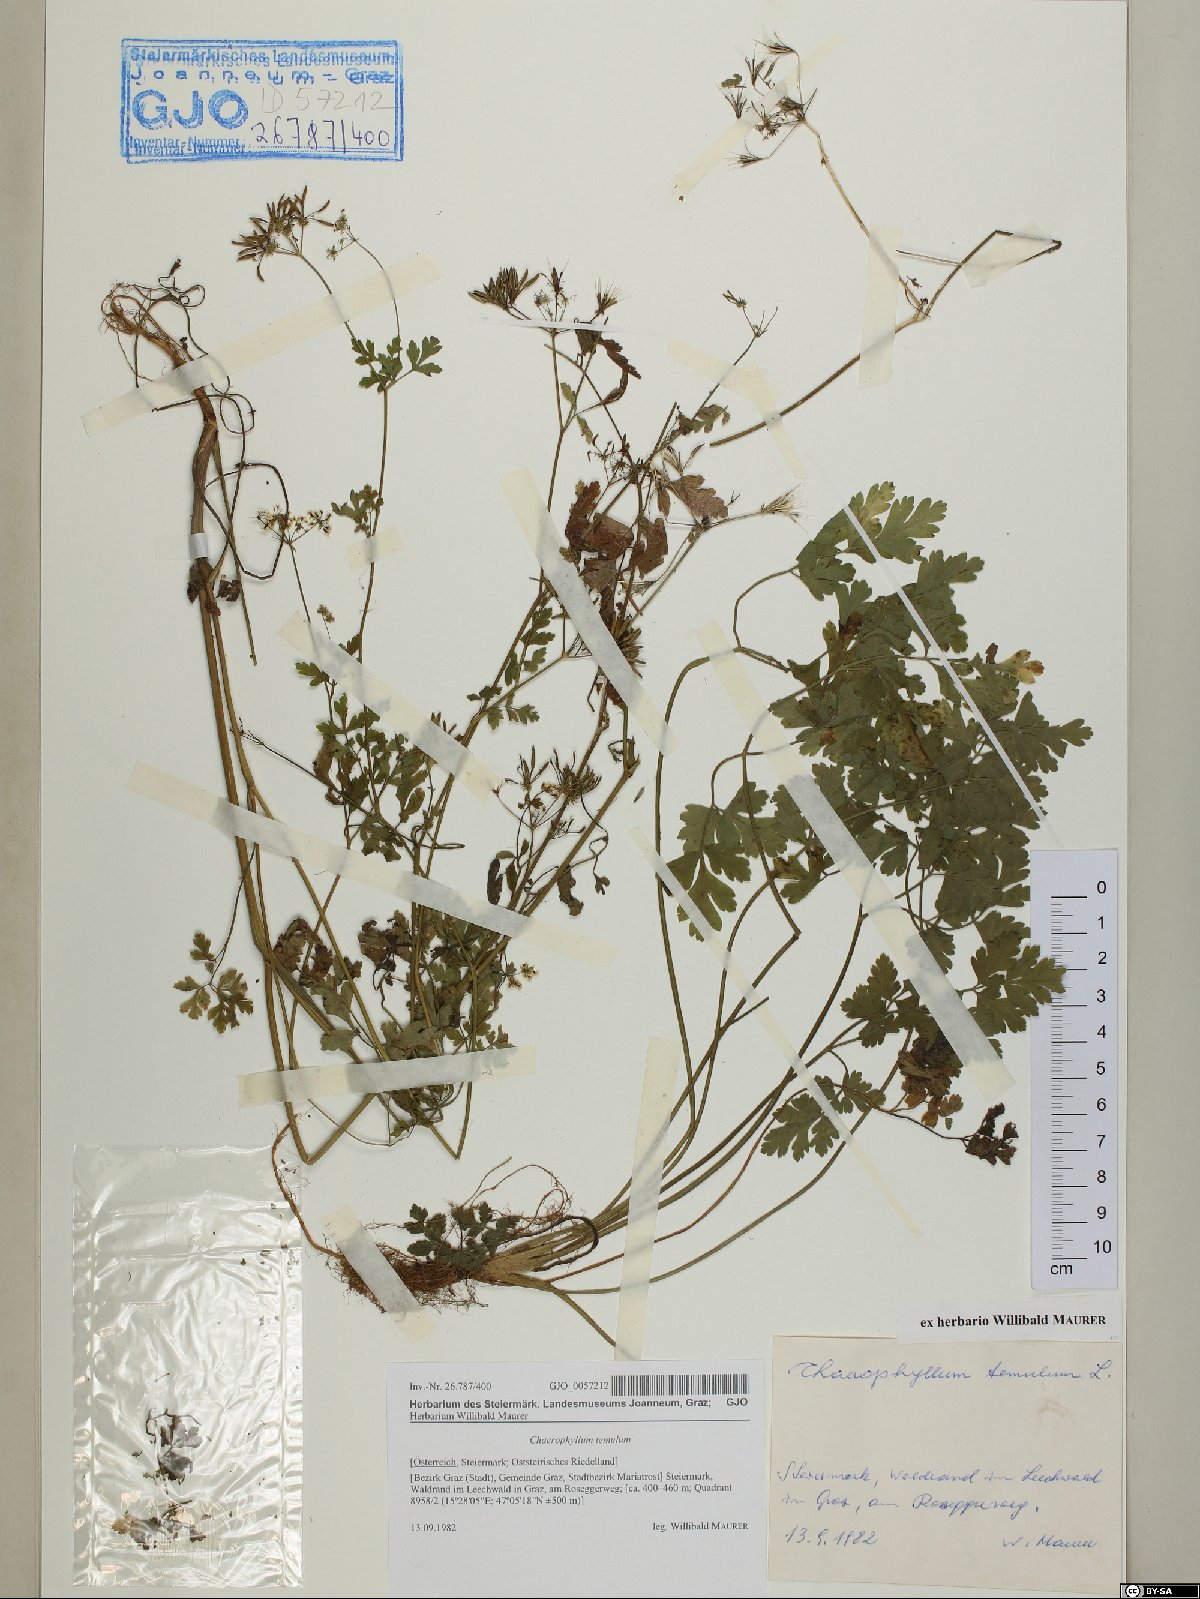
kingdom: Plantae
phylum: Tracheophyta
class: Magnoliopsida
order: Apiales
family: Apiaceae
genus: Chaerophyllum
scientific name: Chaerophyllum temulum
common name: Rough chervil
